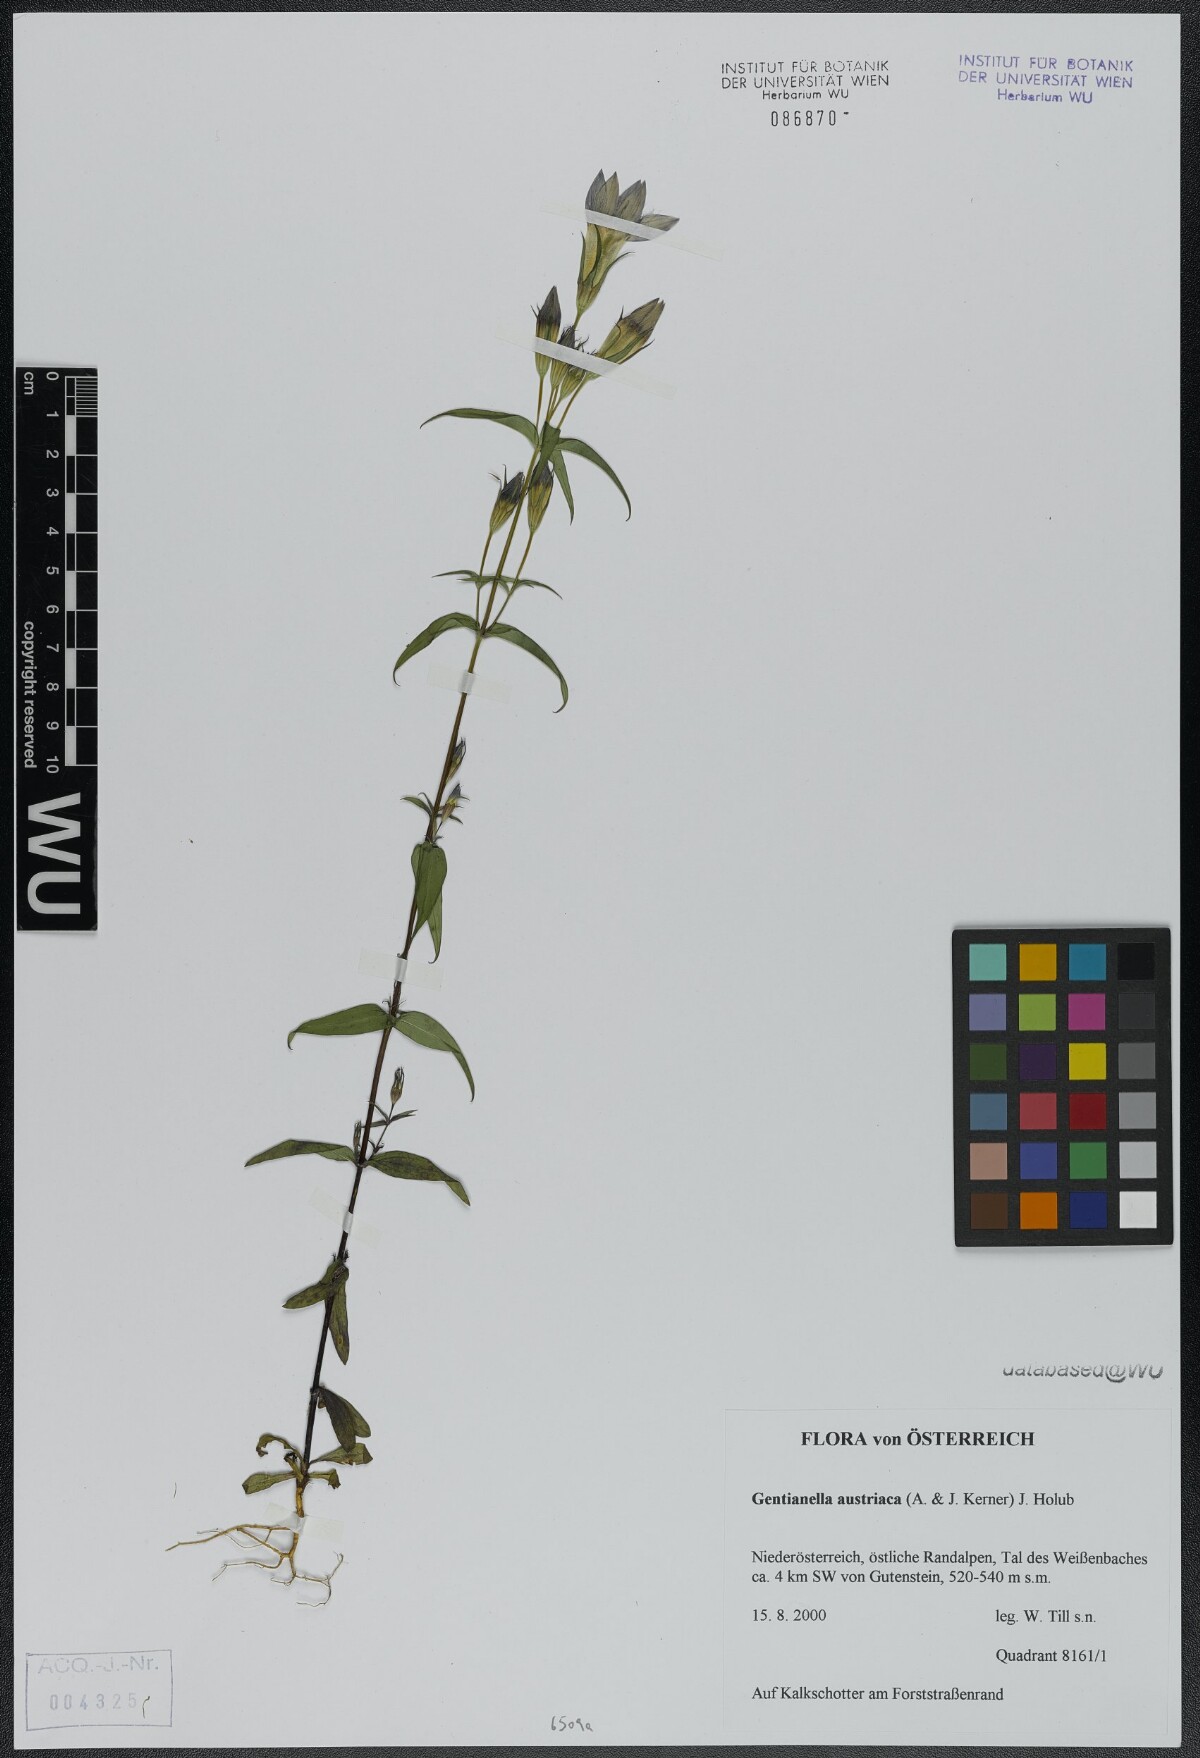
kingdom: Plantae
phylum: Tracheophyta
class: Magnoliopsida
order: Gentianales
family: Gentianaceae
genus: Gentianella
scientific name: Gentianella austriaca
